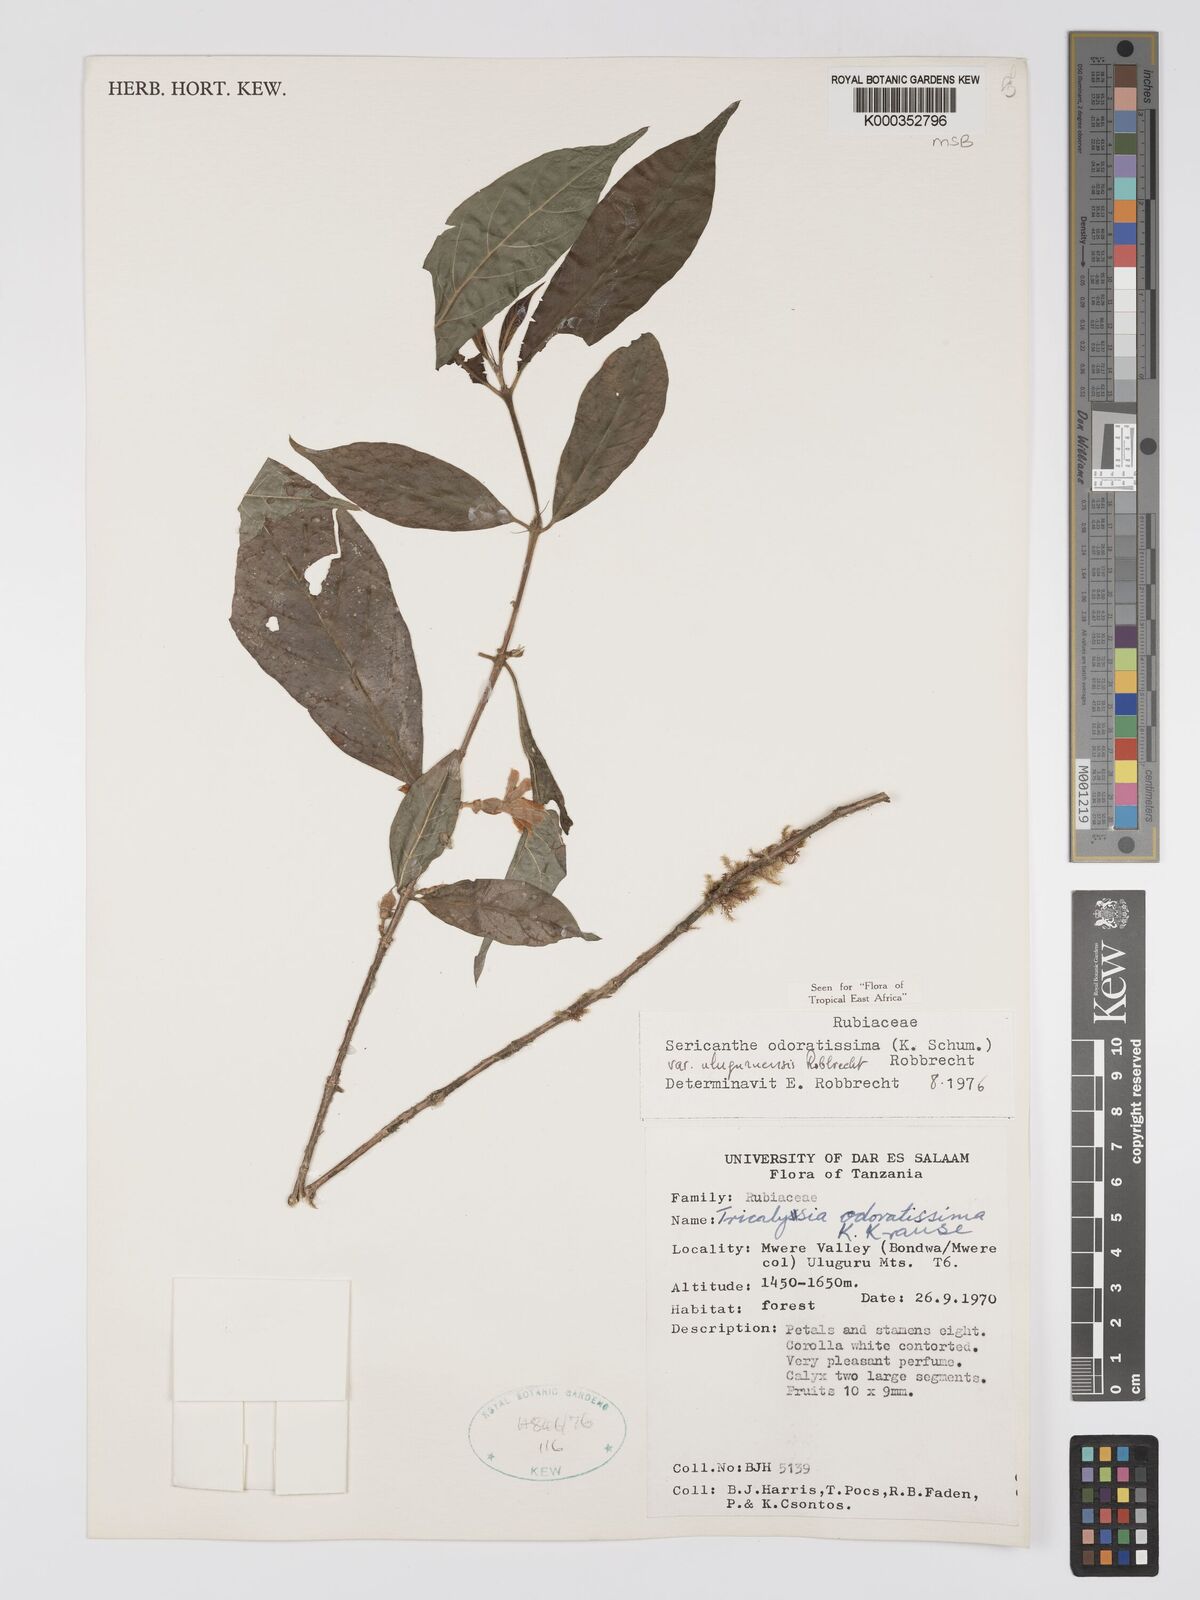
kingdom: Plantae
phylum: Tracheophyta
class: Magnoliopsida
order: Gentianales
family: Rubiaceae
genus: Sericanthe
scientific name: Sericanthe odoratissima
